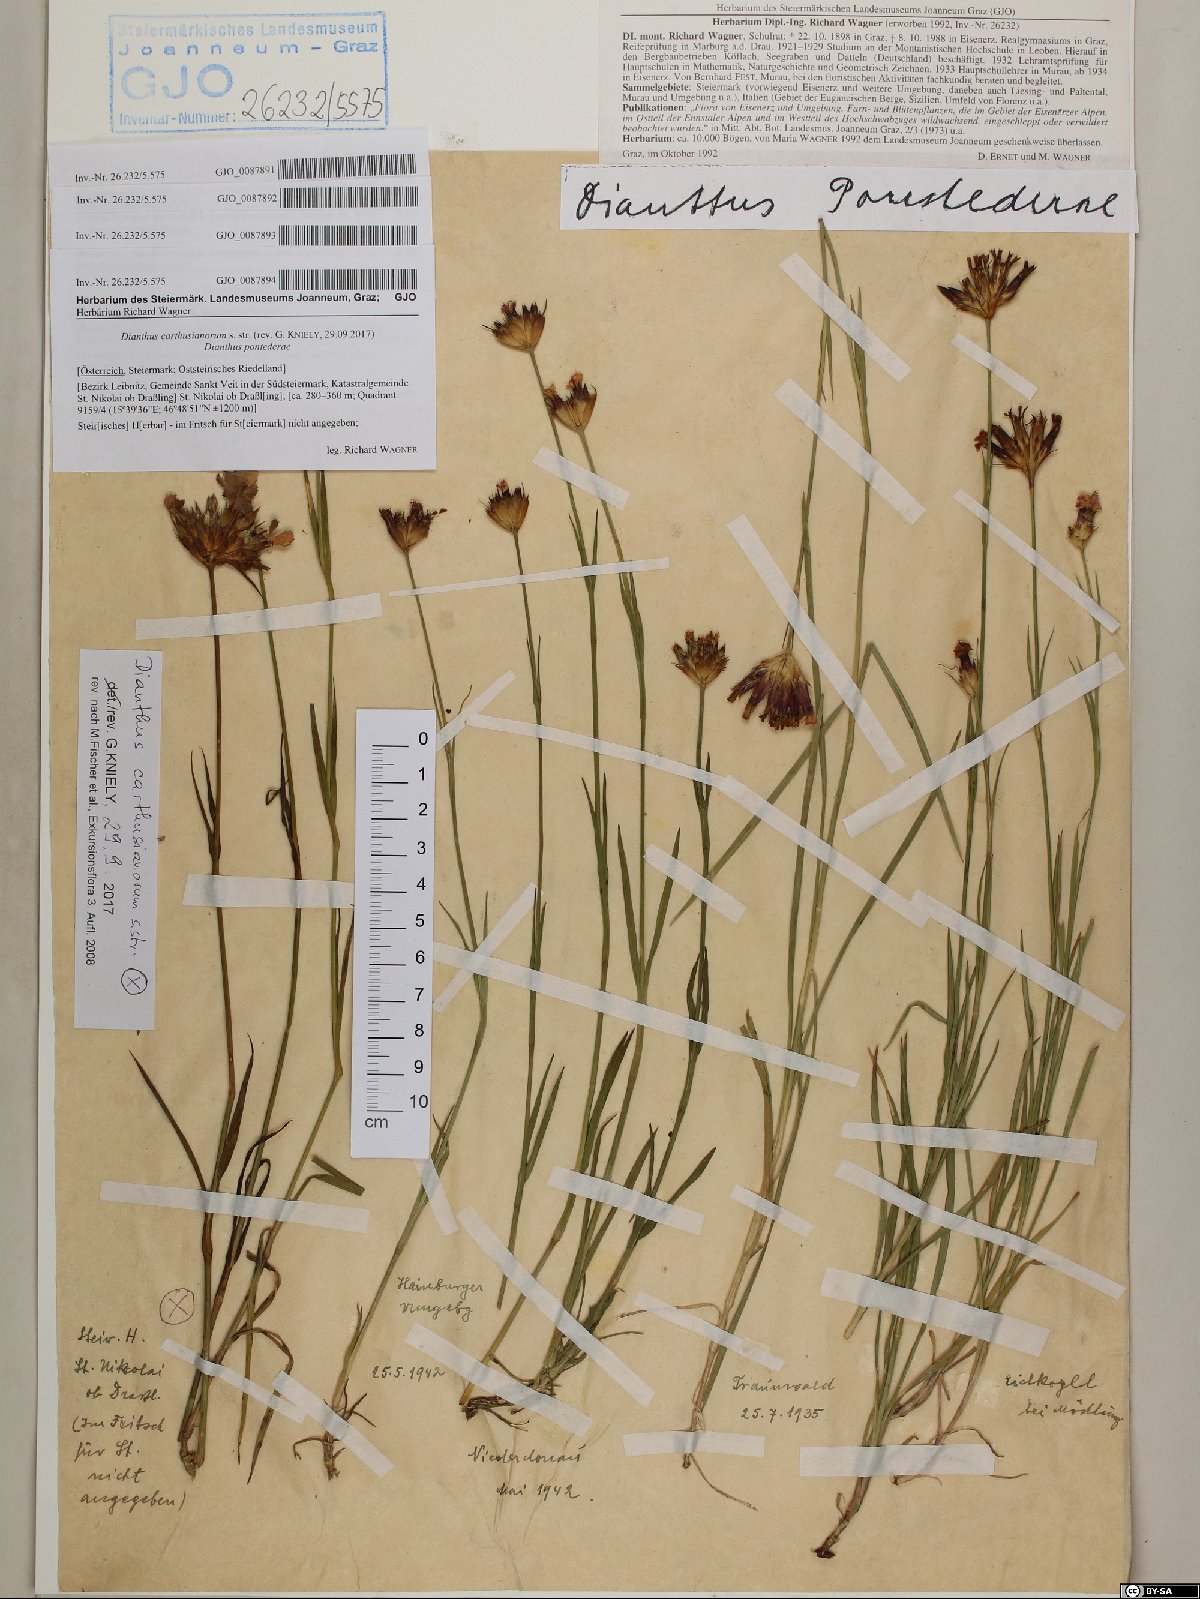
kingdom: Plantae
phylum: Tracheophyta
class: Magnoliopsida
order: Caryophyllales
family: Caryophyllaceae
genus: Dianthus
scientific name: Dianthus pontederae
